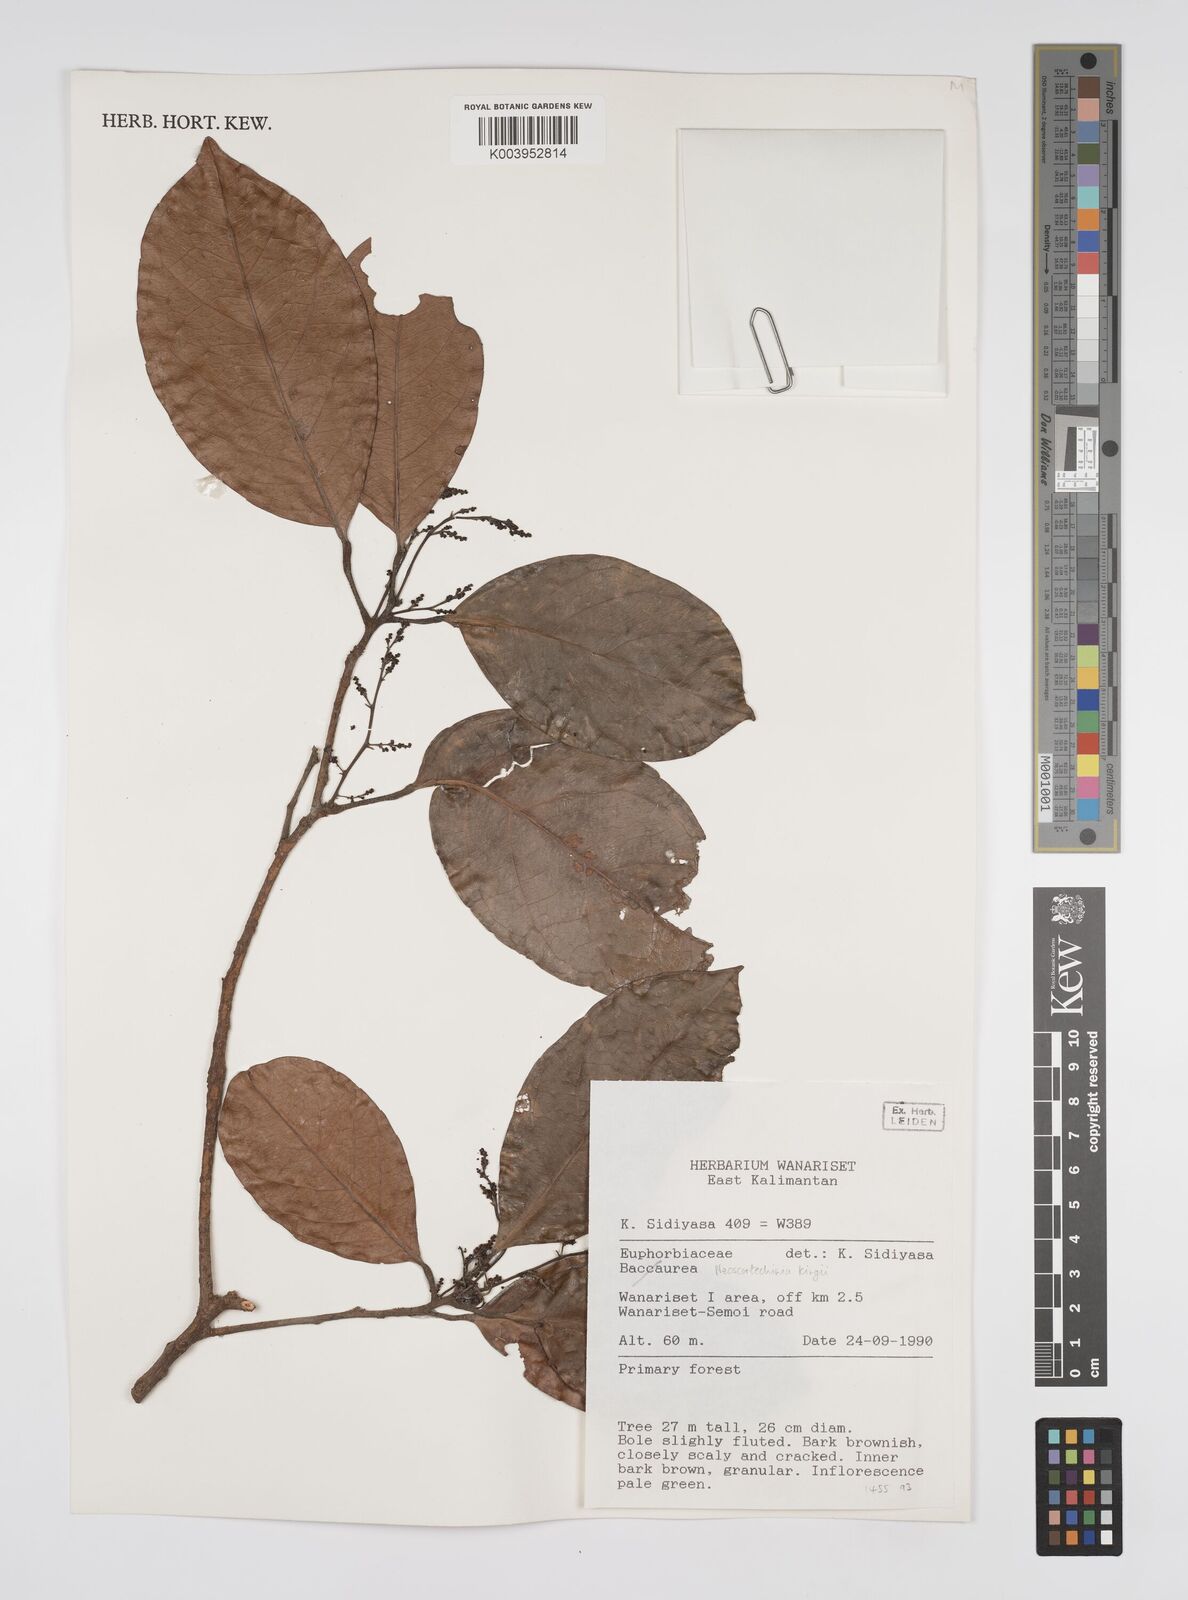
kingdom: Plantae
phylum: Tracheophyta
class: Magnoliopsida
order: Malpighiales
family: Euphorbiaceae
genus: Neoscortechinia
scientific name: Neoscortechinia kingii
